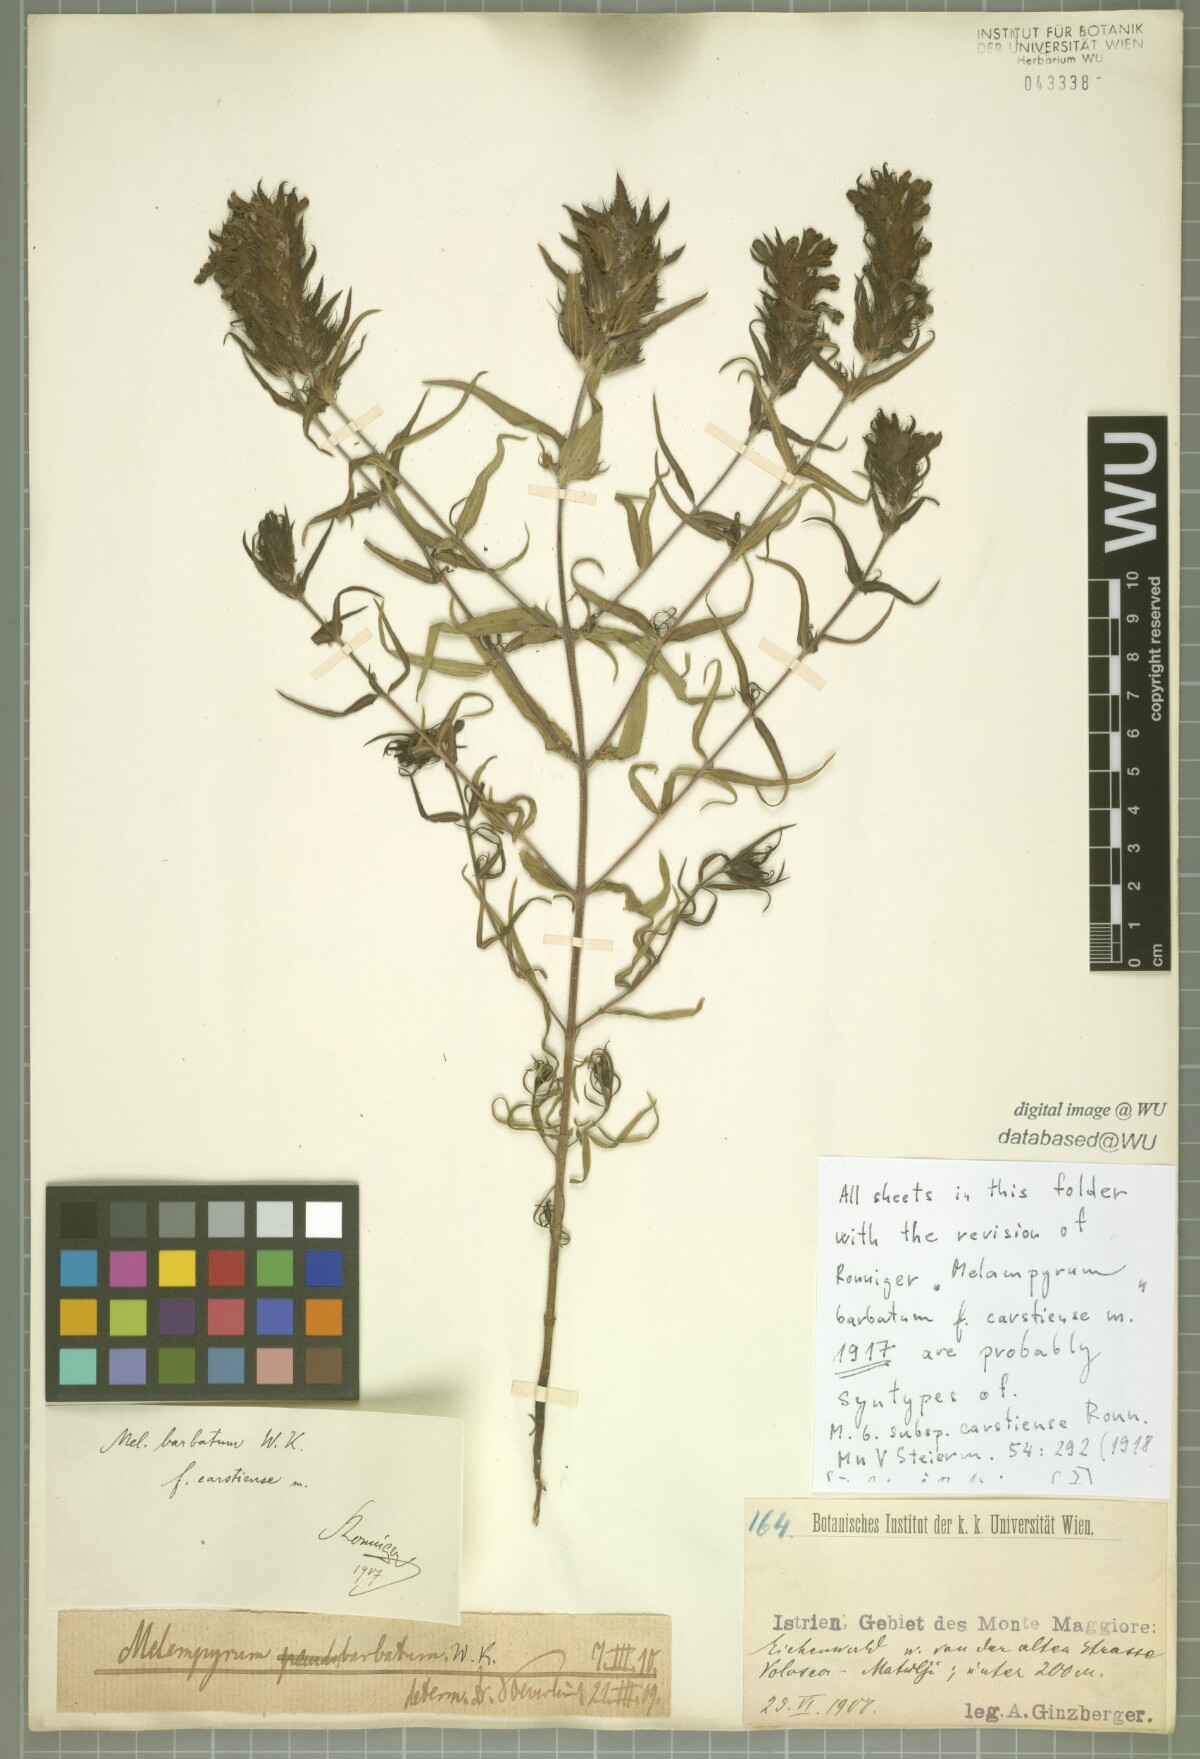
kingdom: Plantae
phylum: Tracheophyta
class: Magnoliopsida
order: Lamiales
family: Orobanchaceae
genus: Melampyrum
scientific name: Melampyrum barbatum
